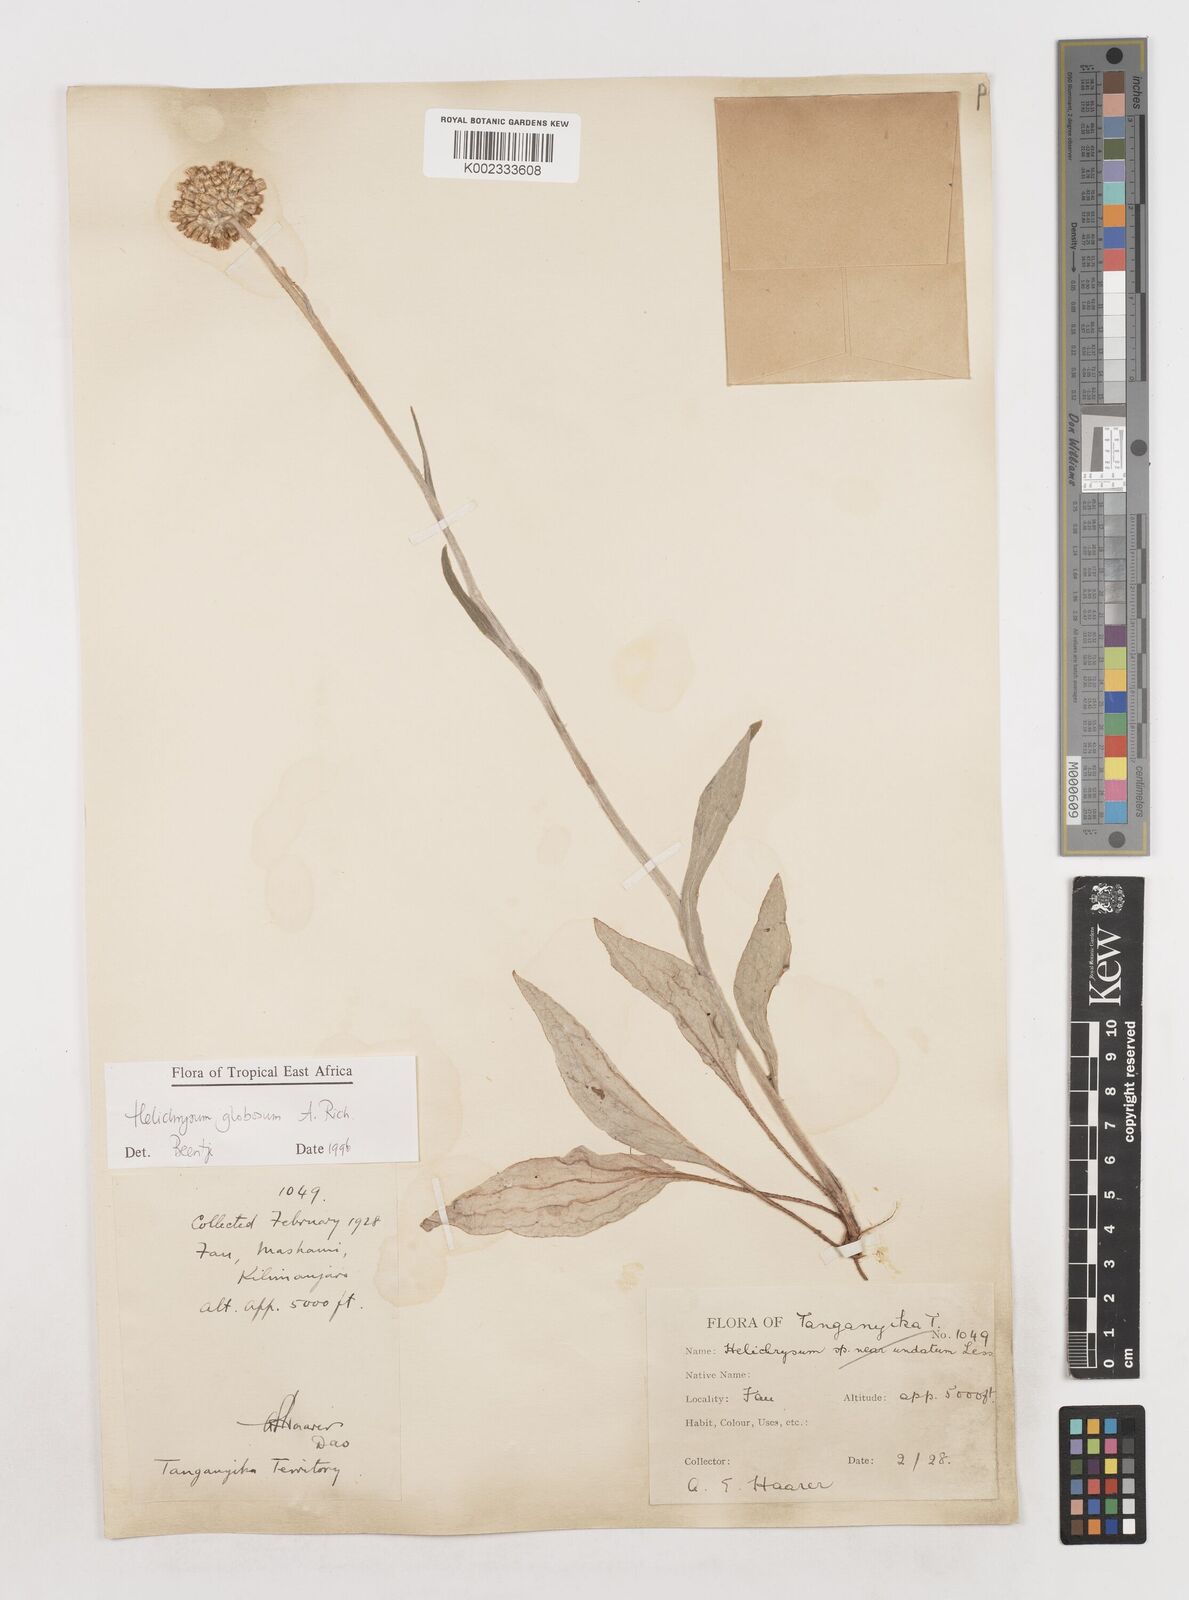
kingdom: Plantae
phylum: Tracheophyta
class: Magnoliopsida
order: Asterales
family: Asteraceae
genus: Helichrysum
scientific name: Helichrysum globosum
